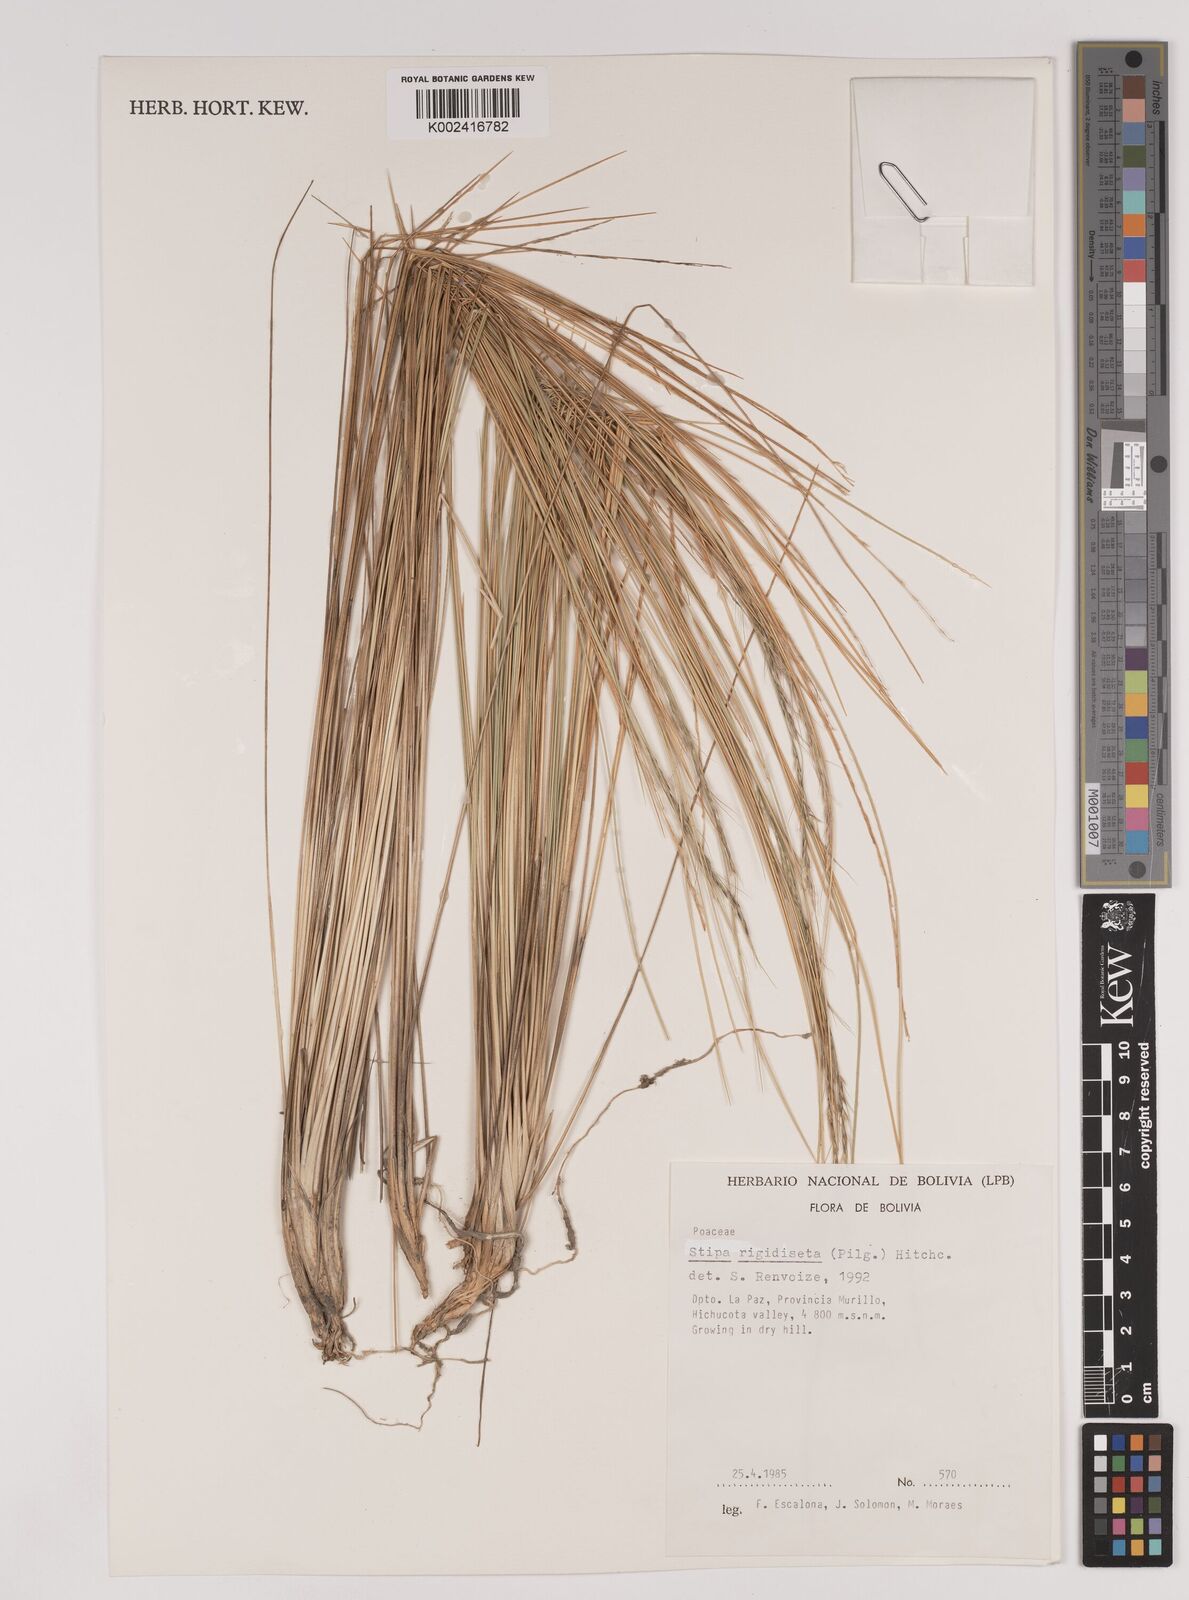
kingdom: Plantae
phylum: Tracheophyta
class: Liliopsida
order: Poales
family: Poaceae
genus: Stipa
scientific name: Stipa rigidiseta
